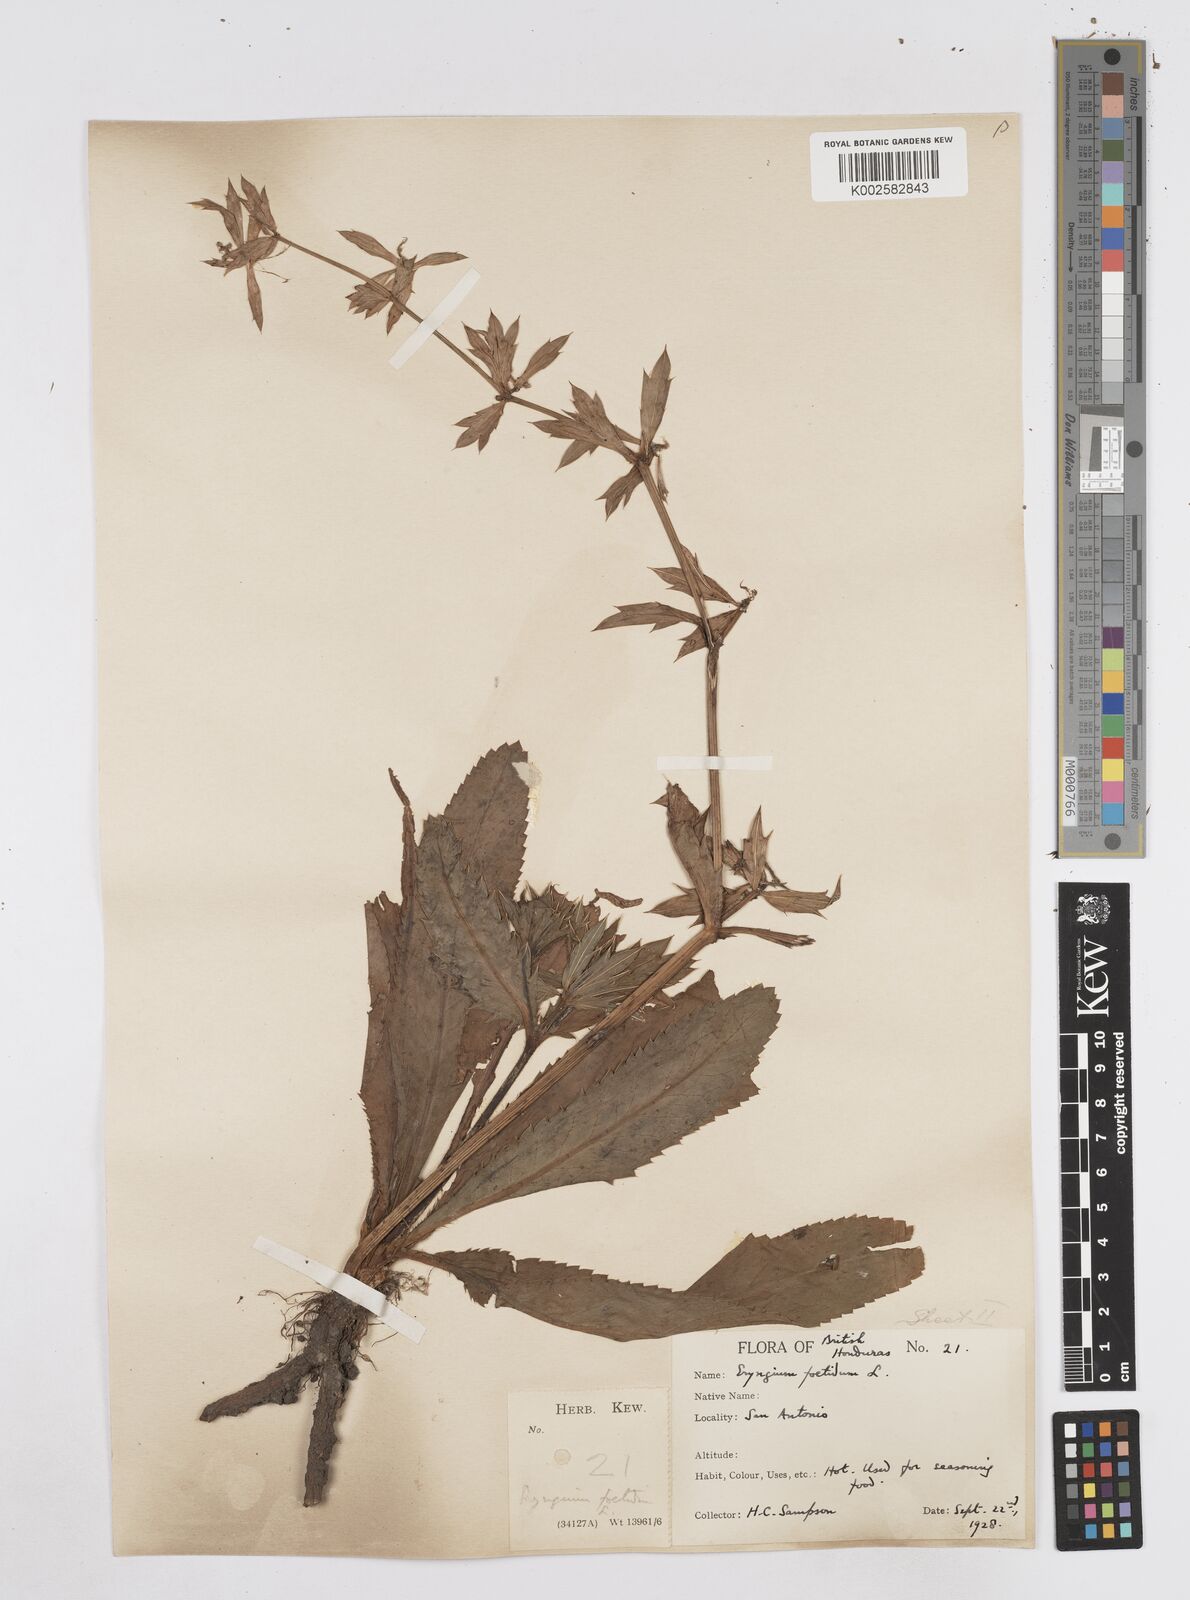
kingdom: Plantae
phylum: Tracheophyta
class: Magnoliopsida
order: Apiales
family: Apiaceae
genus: Eryngium
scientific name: Eryngium foetidum
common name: Fitweed
